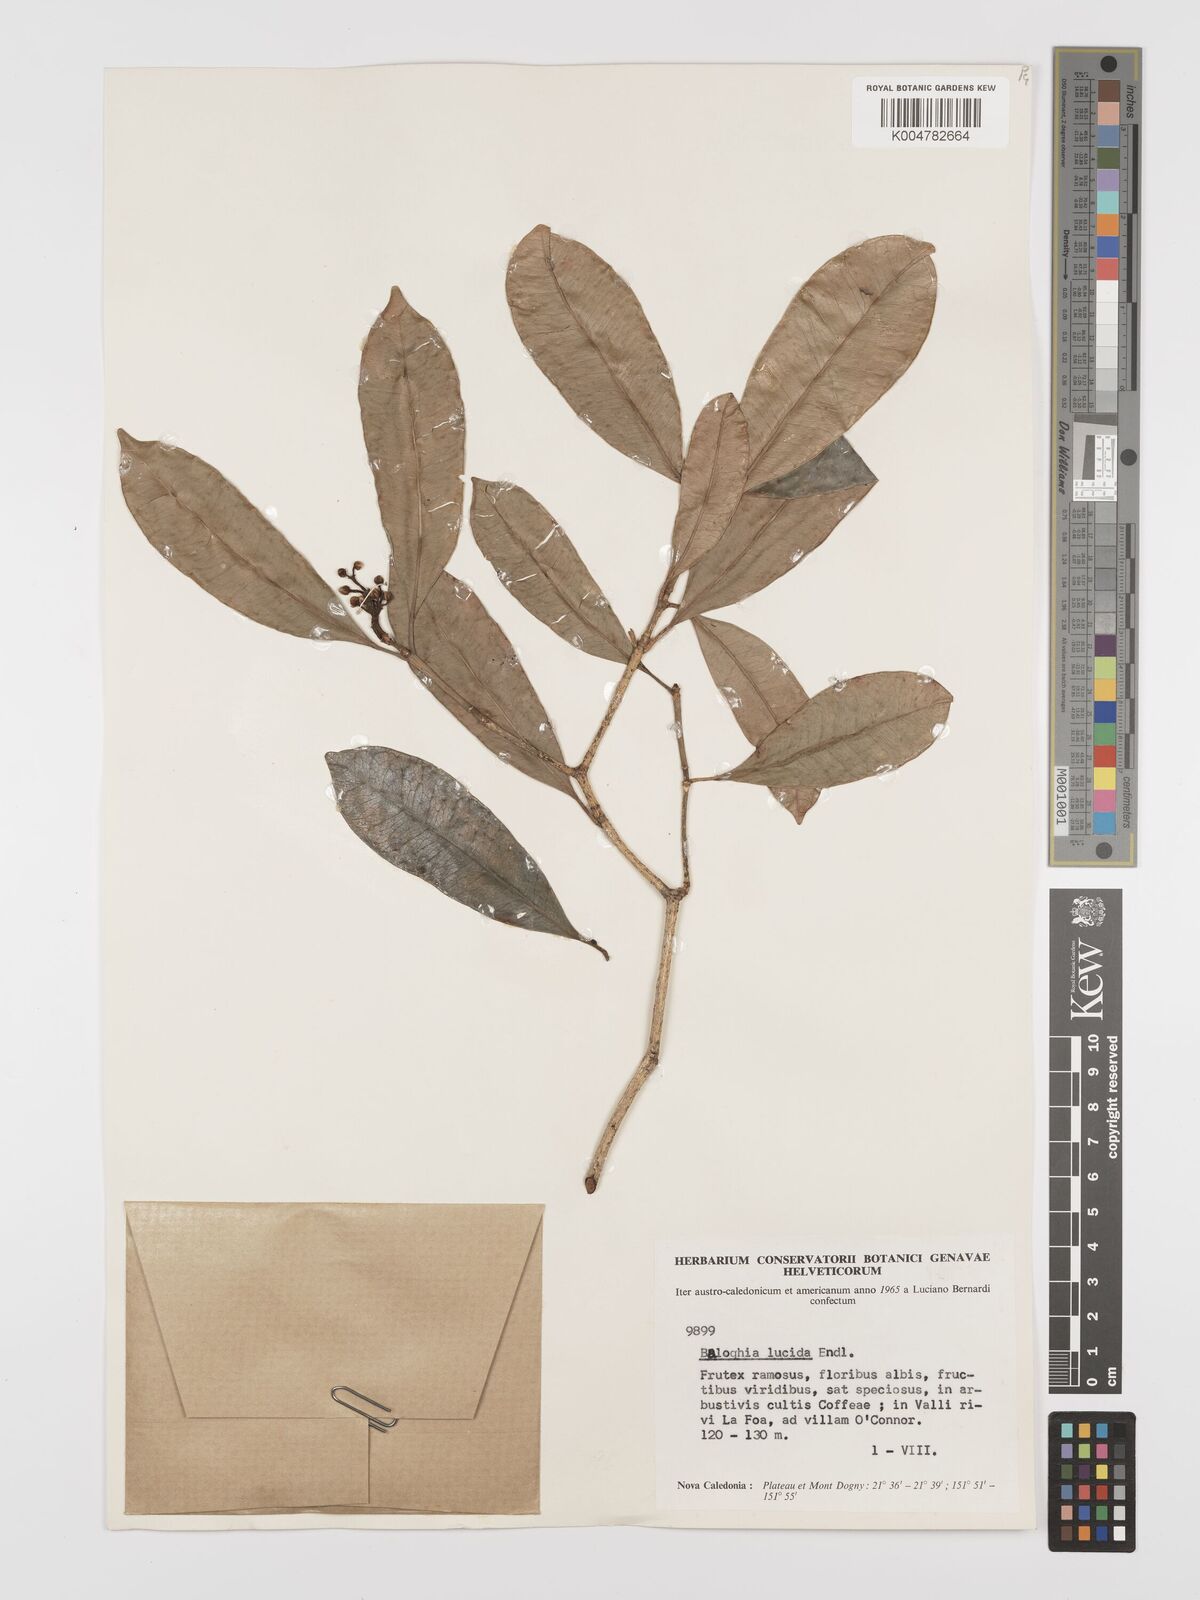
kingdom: Plantae
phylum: Tracheophyta
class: Magnoliopsida
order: Malpighiales
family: Euphorbiaceae
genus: Baloghia
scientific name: Baloghia inophylla
